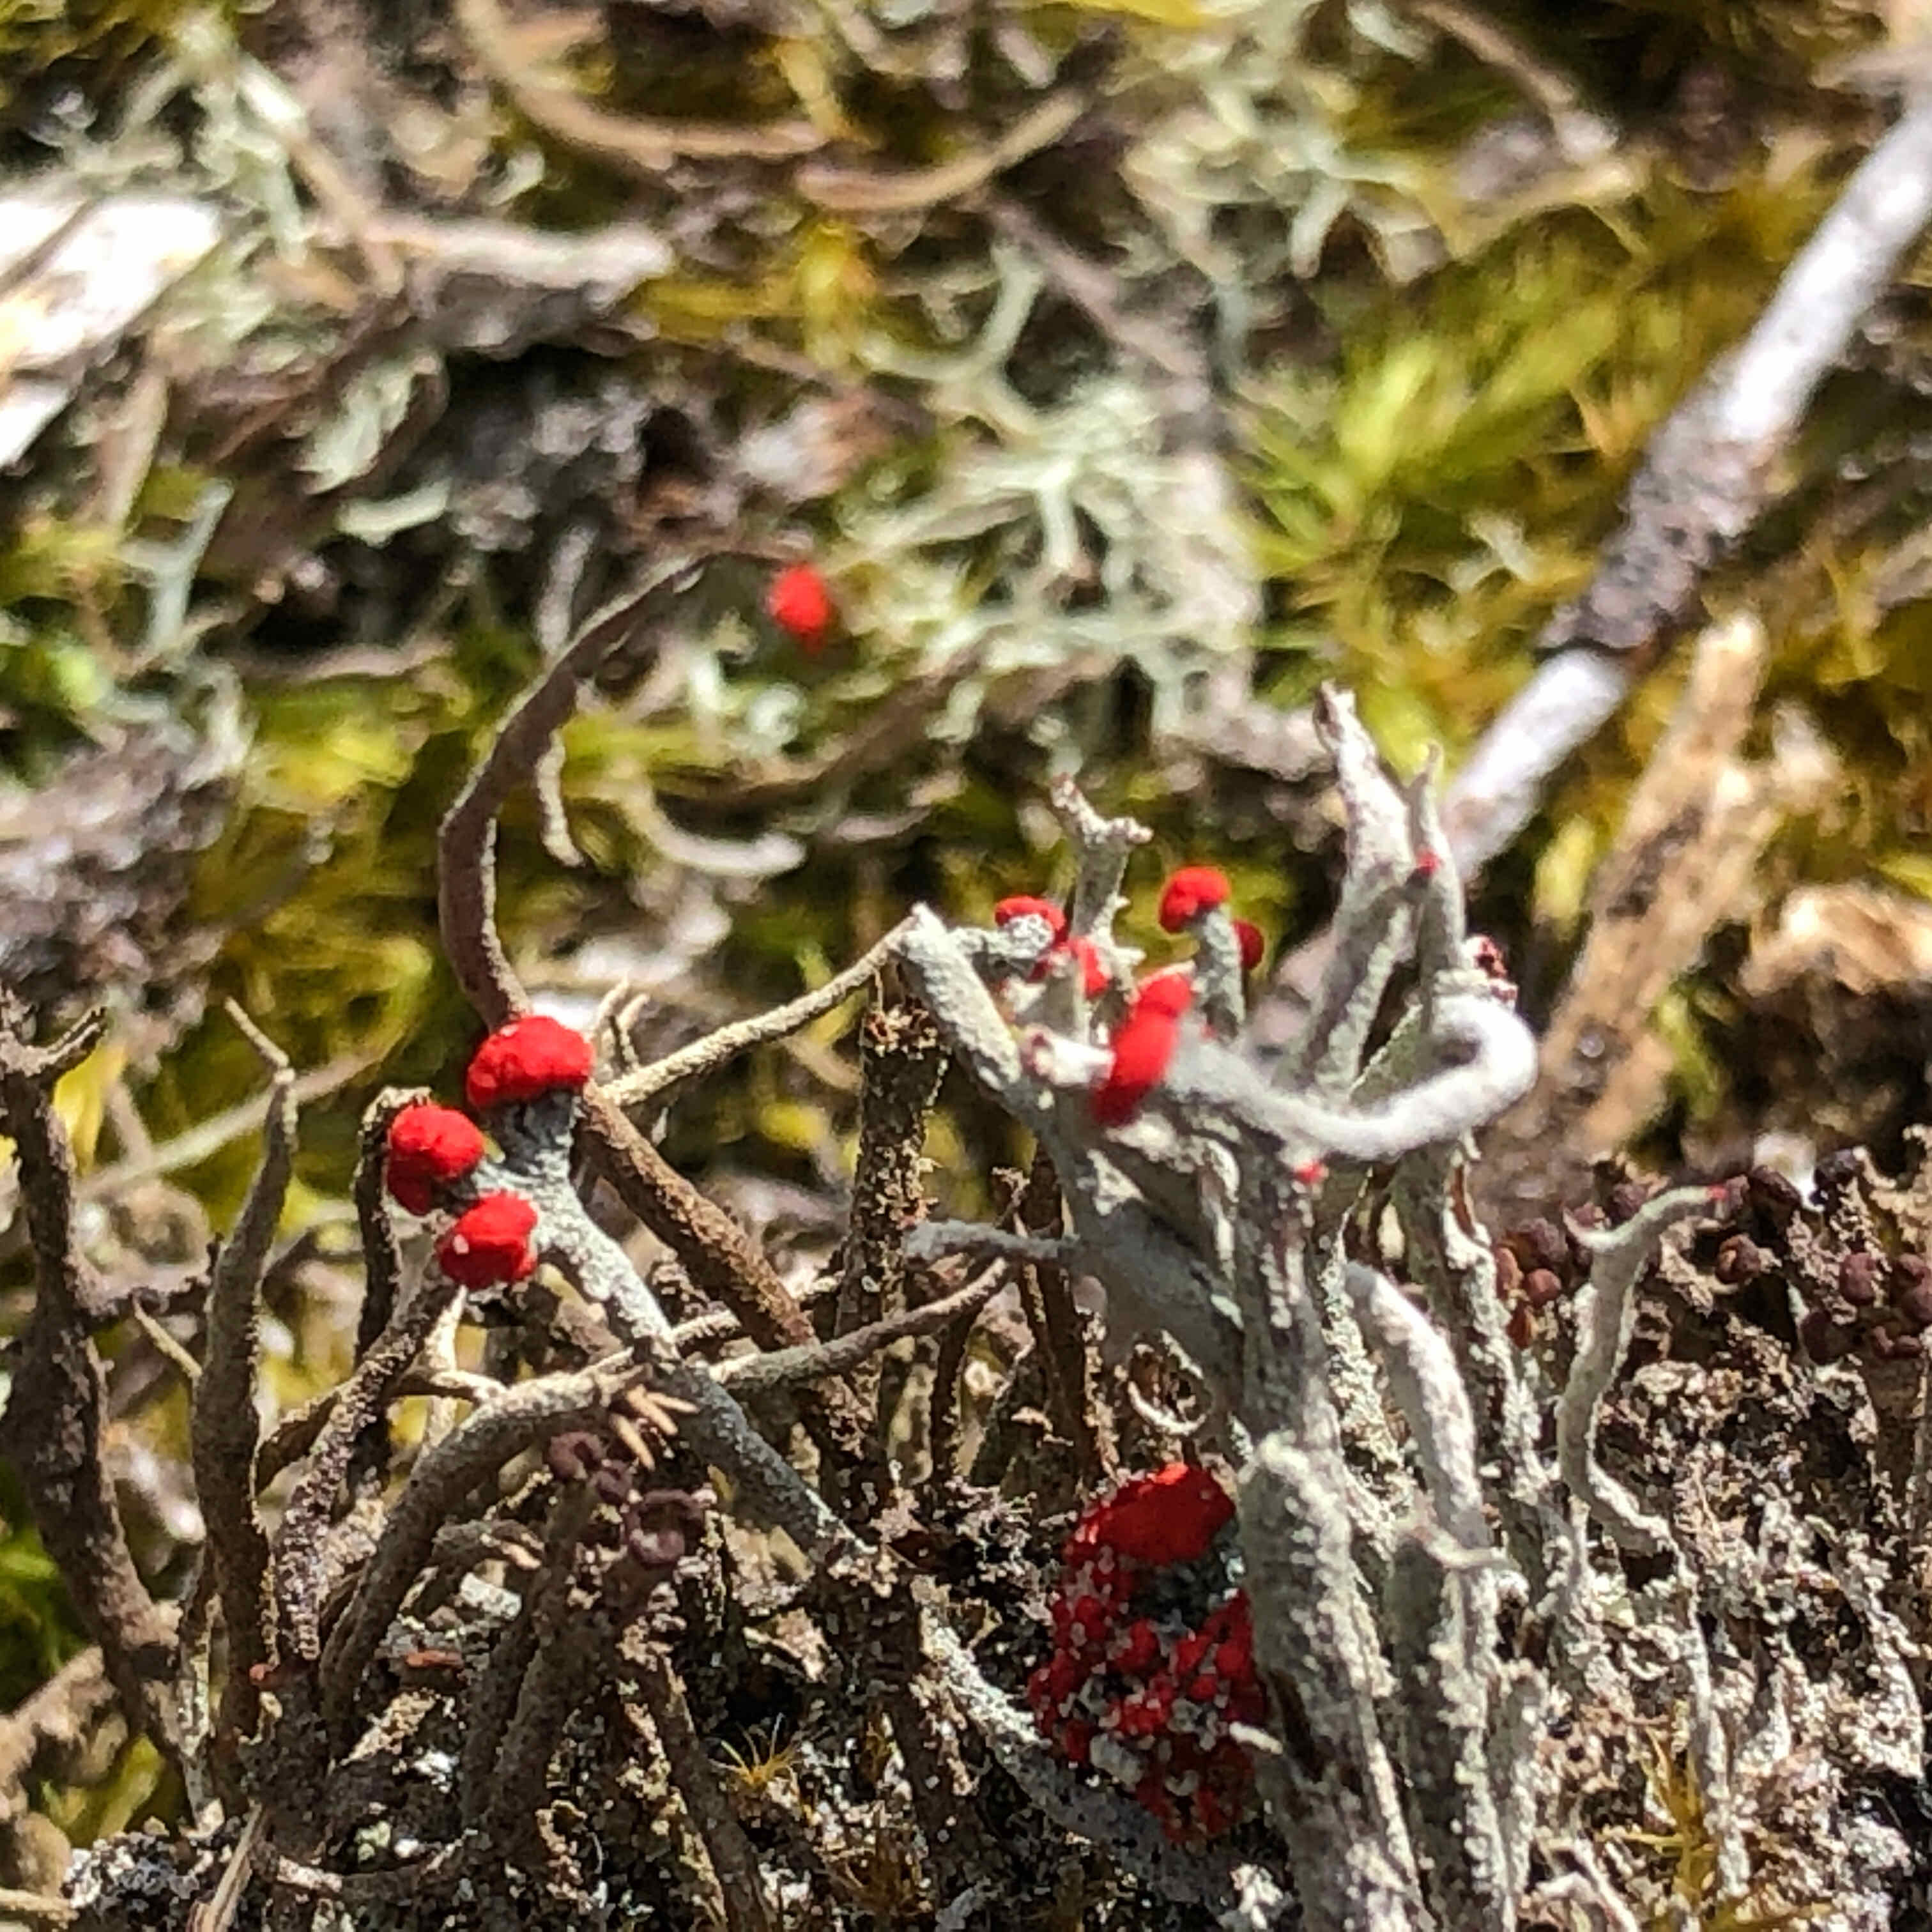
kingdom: Fungi
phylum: Ascomycota
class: Lecanoromycetes
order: Lecanorales
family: Cladoniaceae
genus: Cladonia
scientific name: Cladonia floerkeana
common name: lakrød bægerlav
